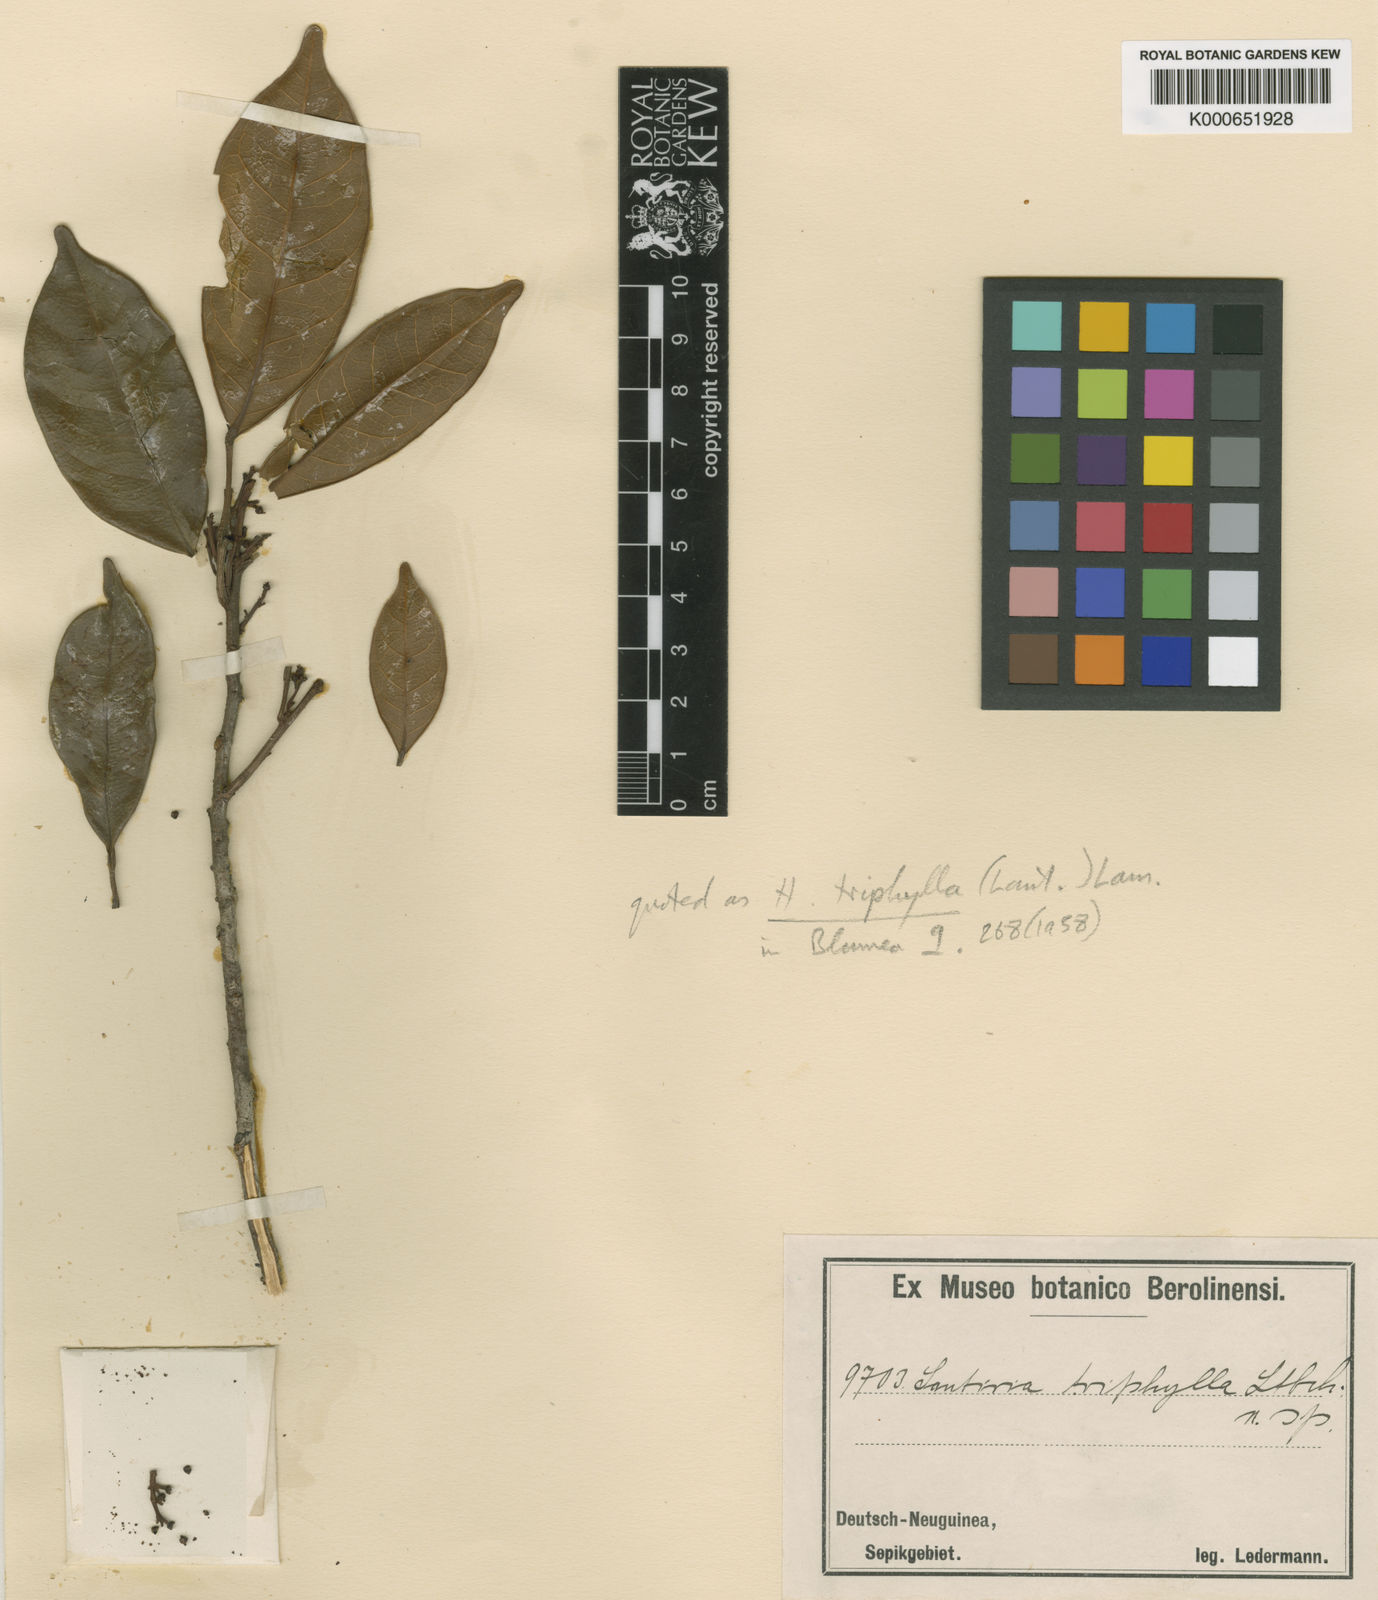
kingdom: Plantae
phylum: Tracheophyta
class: Magnoliopsida
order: Sapindales
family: Burseraceae
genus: Haplolobus
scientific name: Haplolobus floribundus
